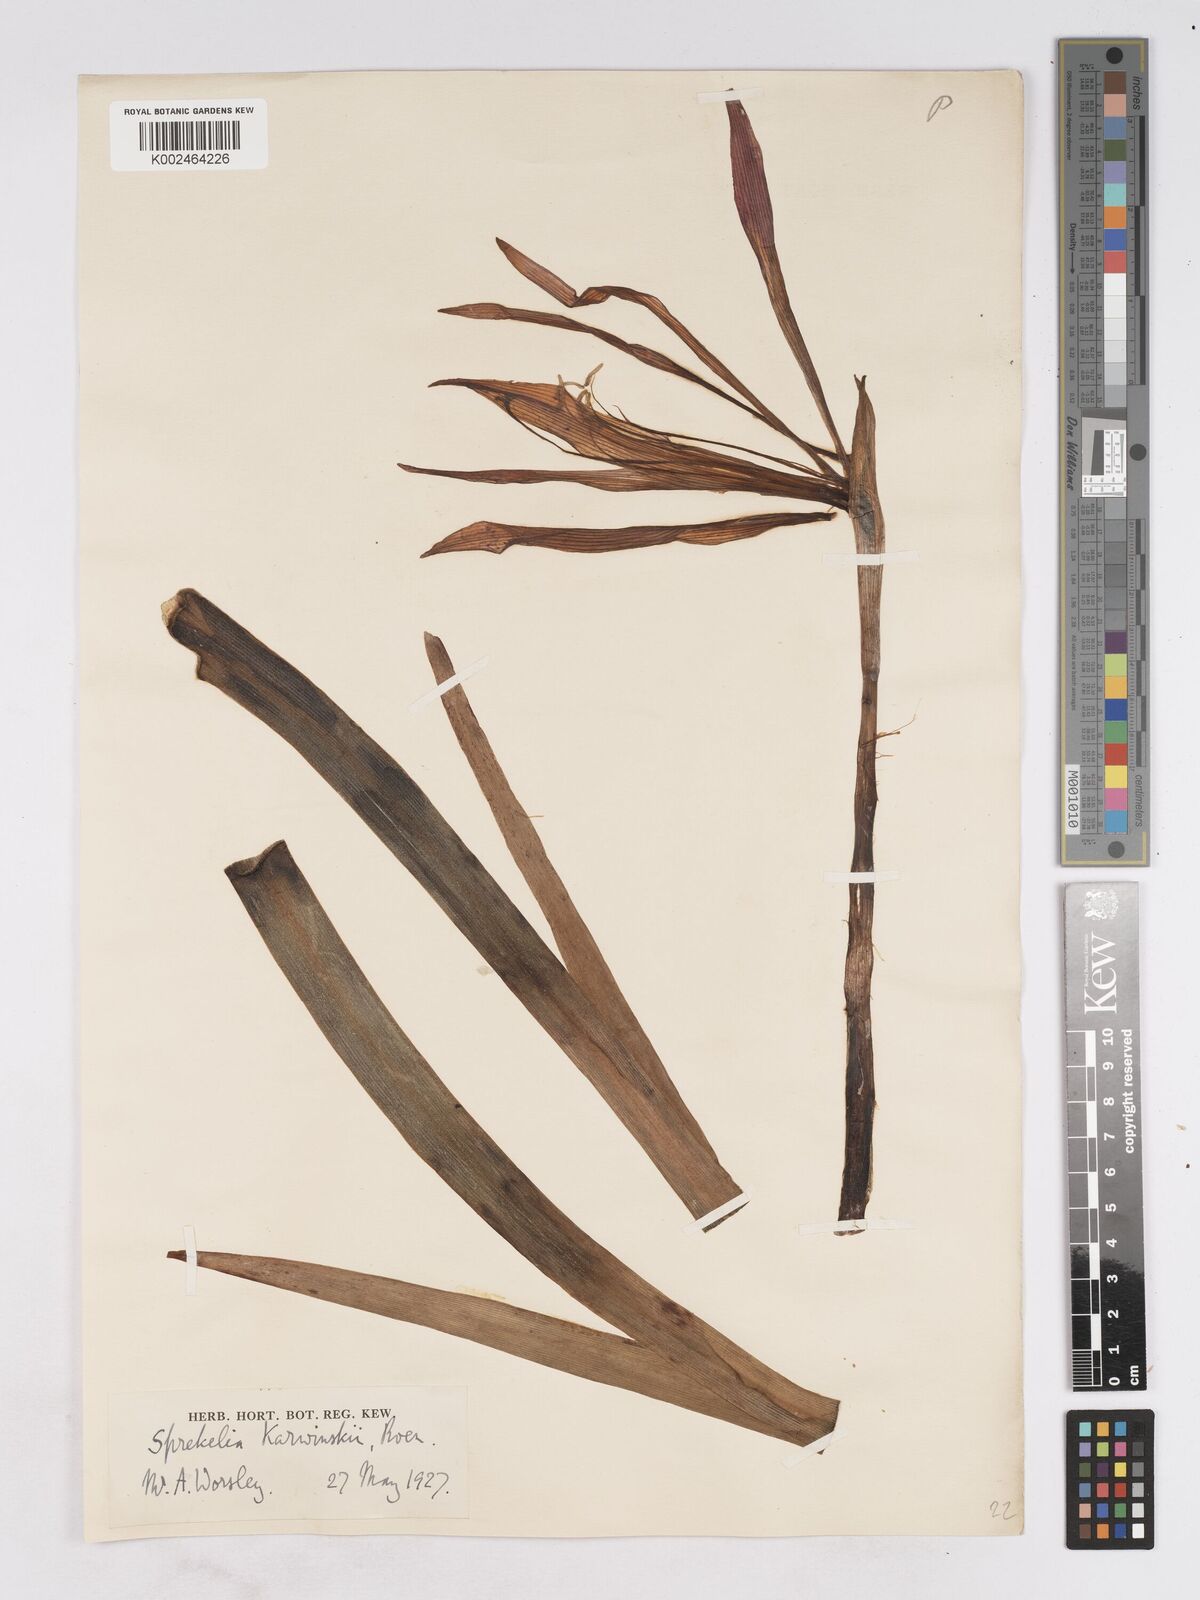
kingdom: Plantae
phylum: Tracheophyta
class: Liliopsida
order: Asparagales
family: Amaryllidaceae
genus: Sprekelia
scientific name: Sprekelia formosissima
